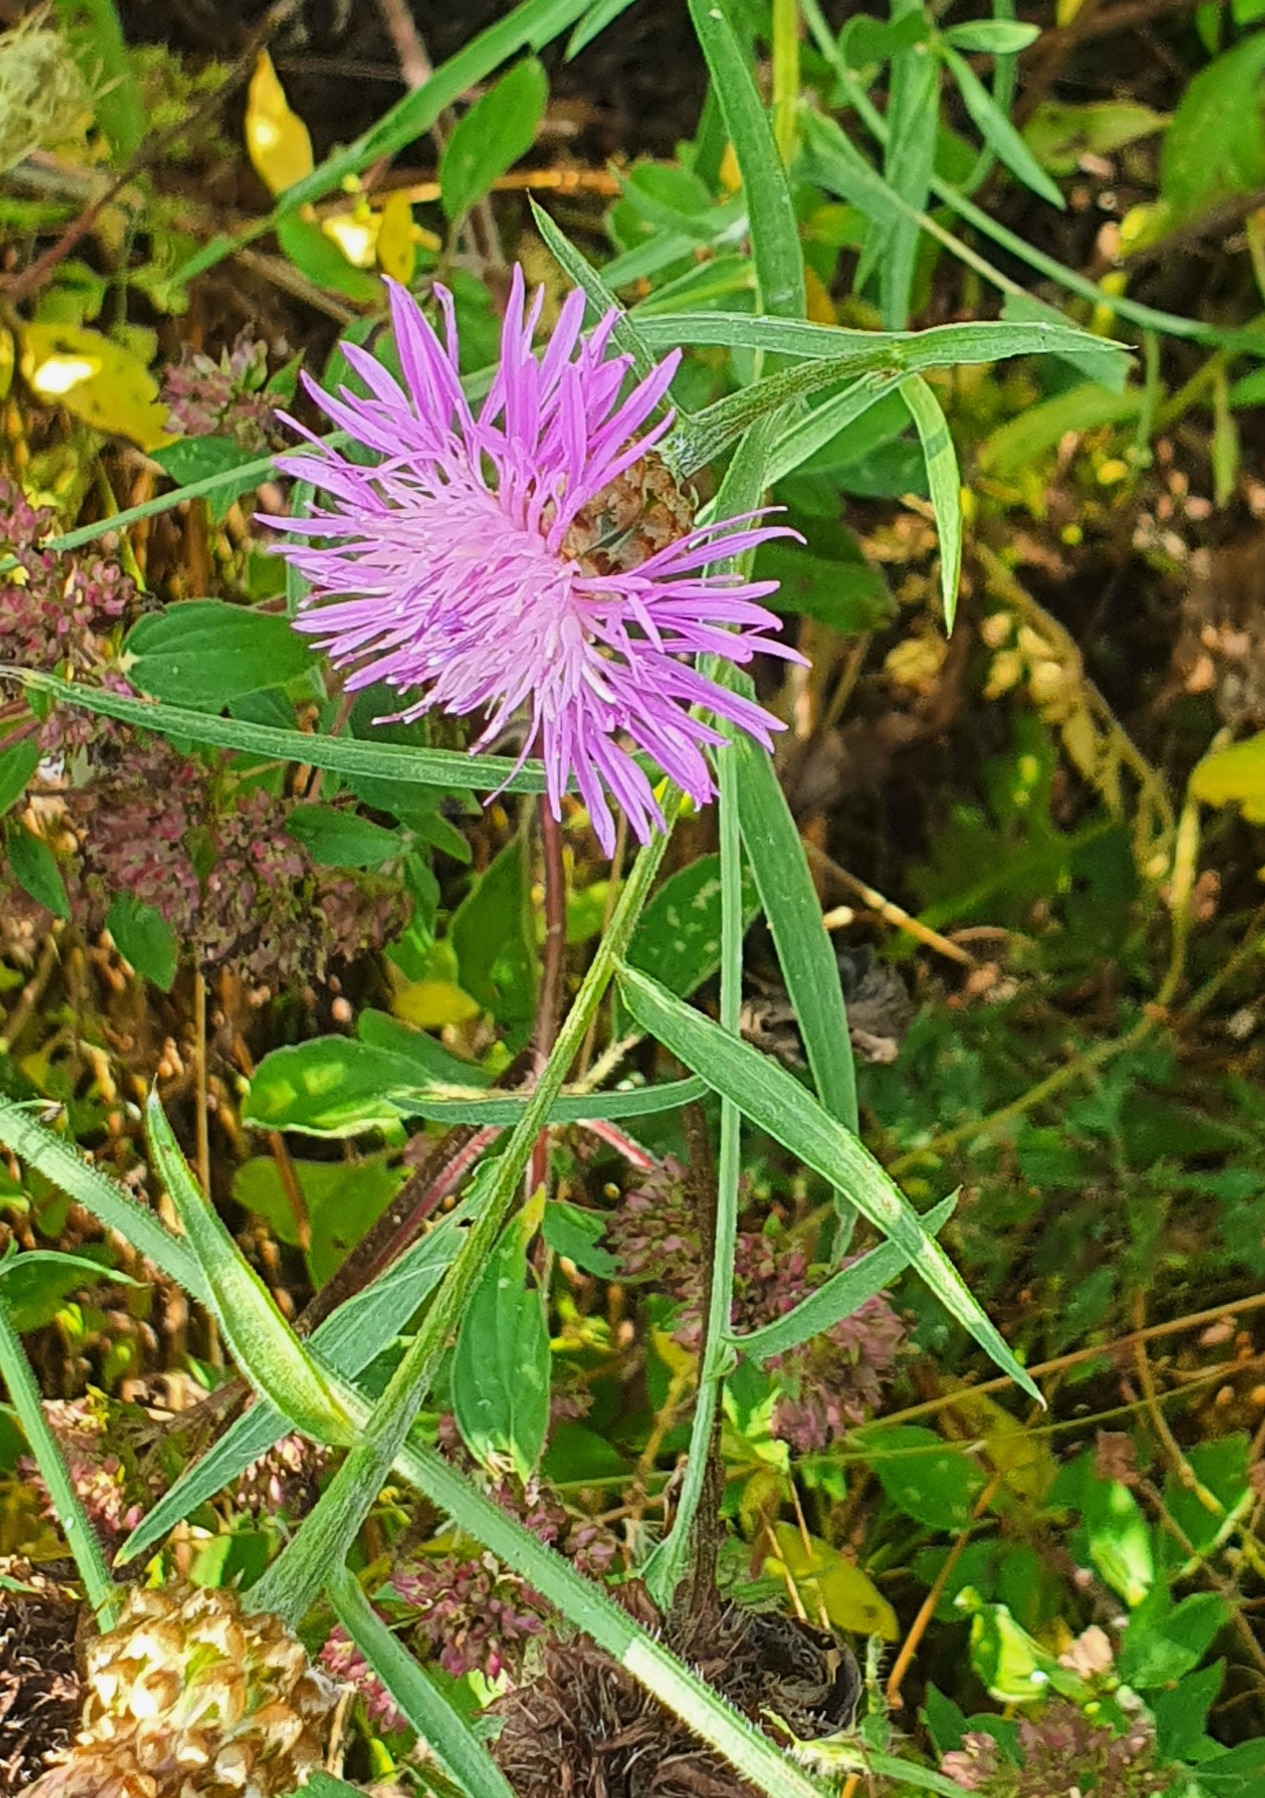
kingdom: Plantae
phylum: Tracheophyta
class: Magnoliopsida
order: Asterales
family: Asteraceae
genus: Centaurea
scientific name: Centaurea jacea
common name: Almindelig knopurt
